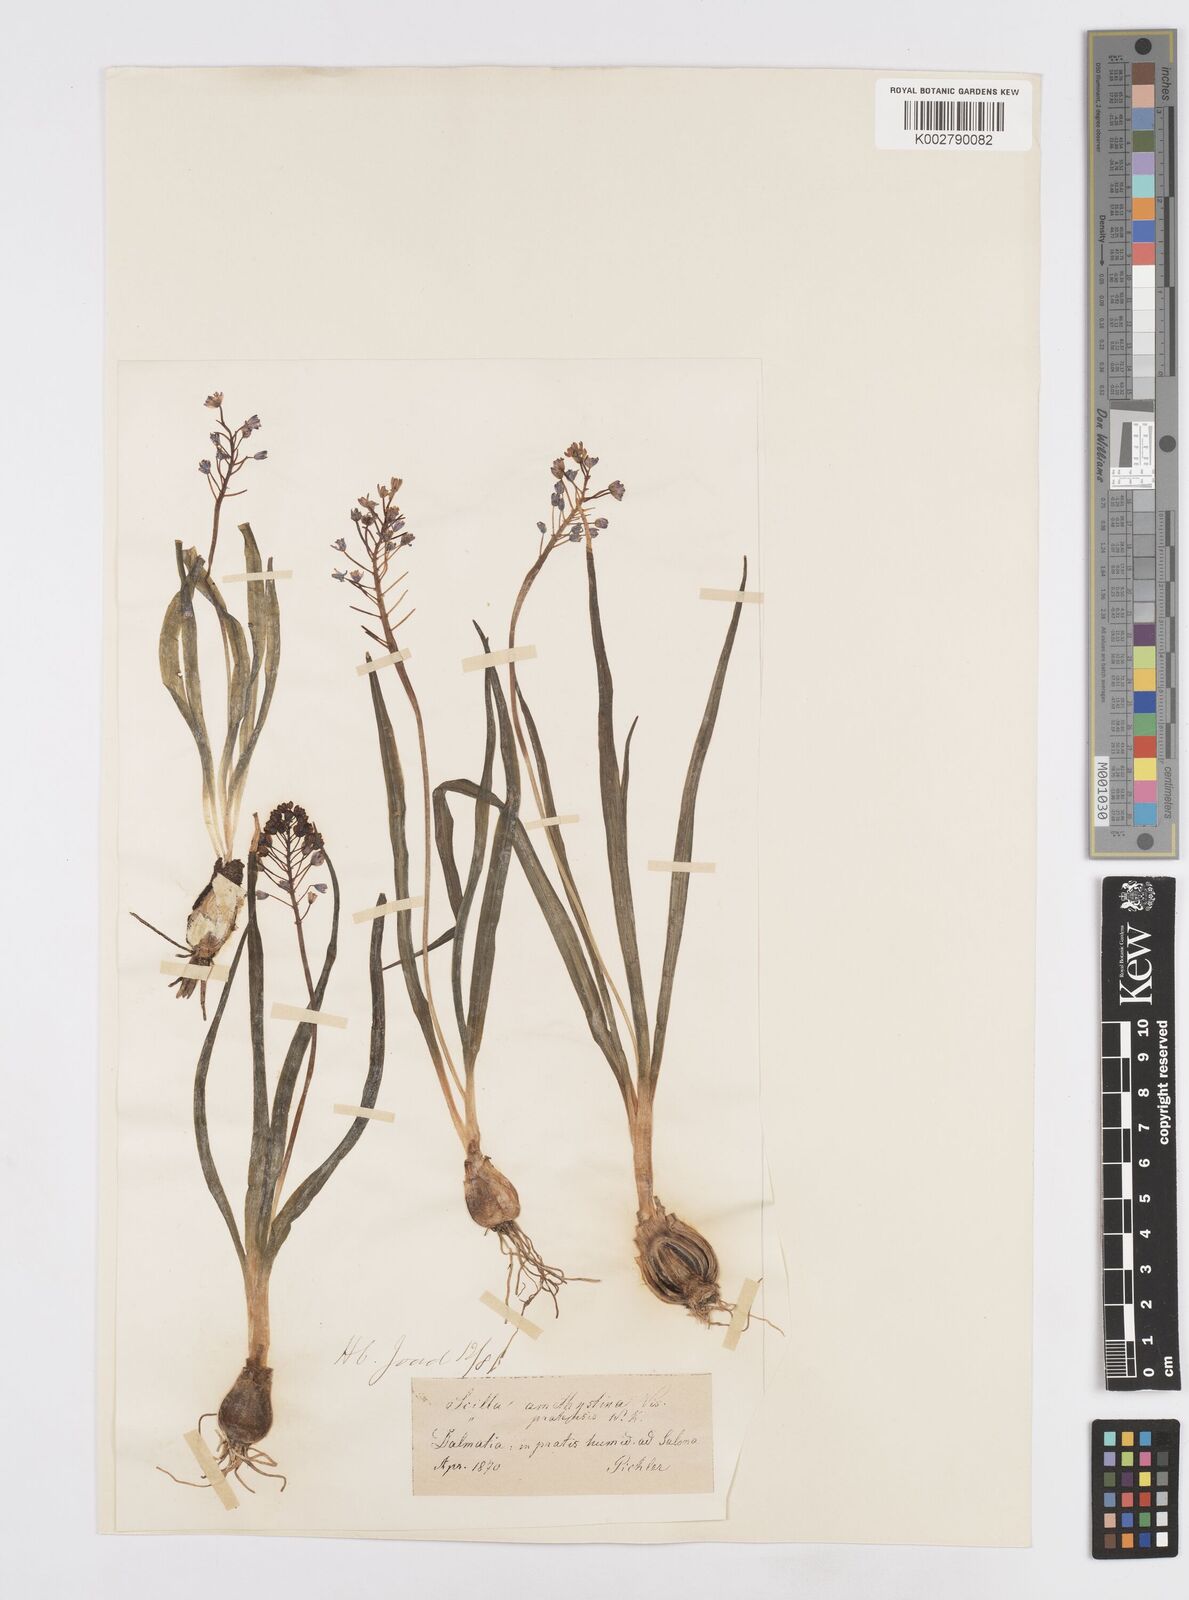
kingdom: Plantae
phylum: Tracheophyta
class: Liliopsida
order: Asparagales
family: Asparagaceae
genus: Scilla
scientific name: Scilla litardierei
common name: Amethyst meadow squill
